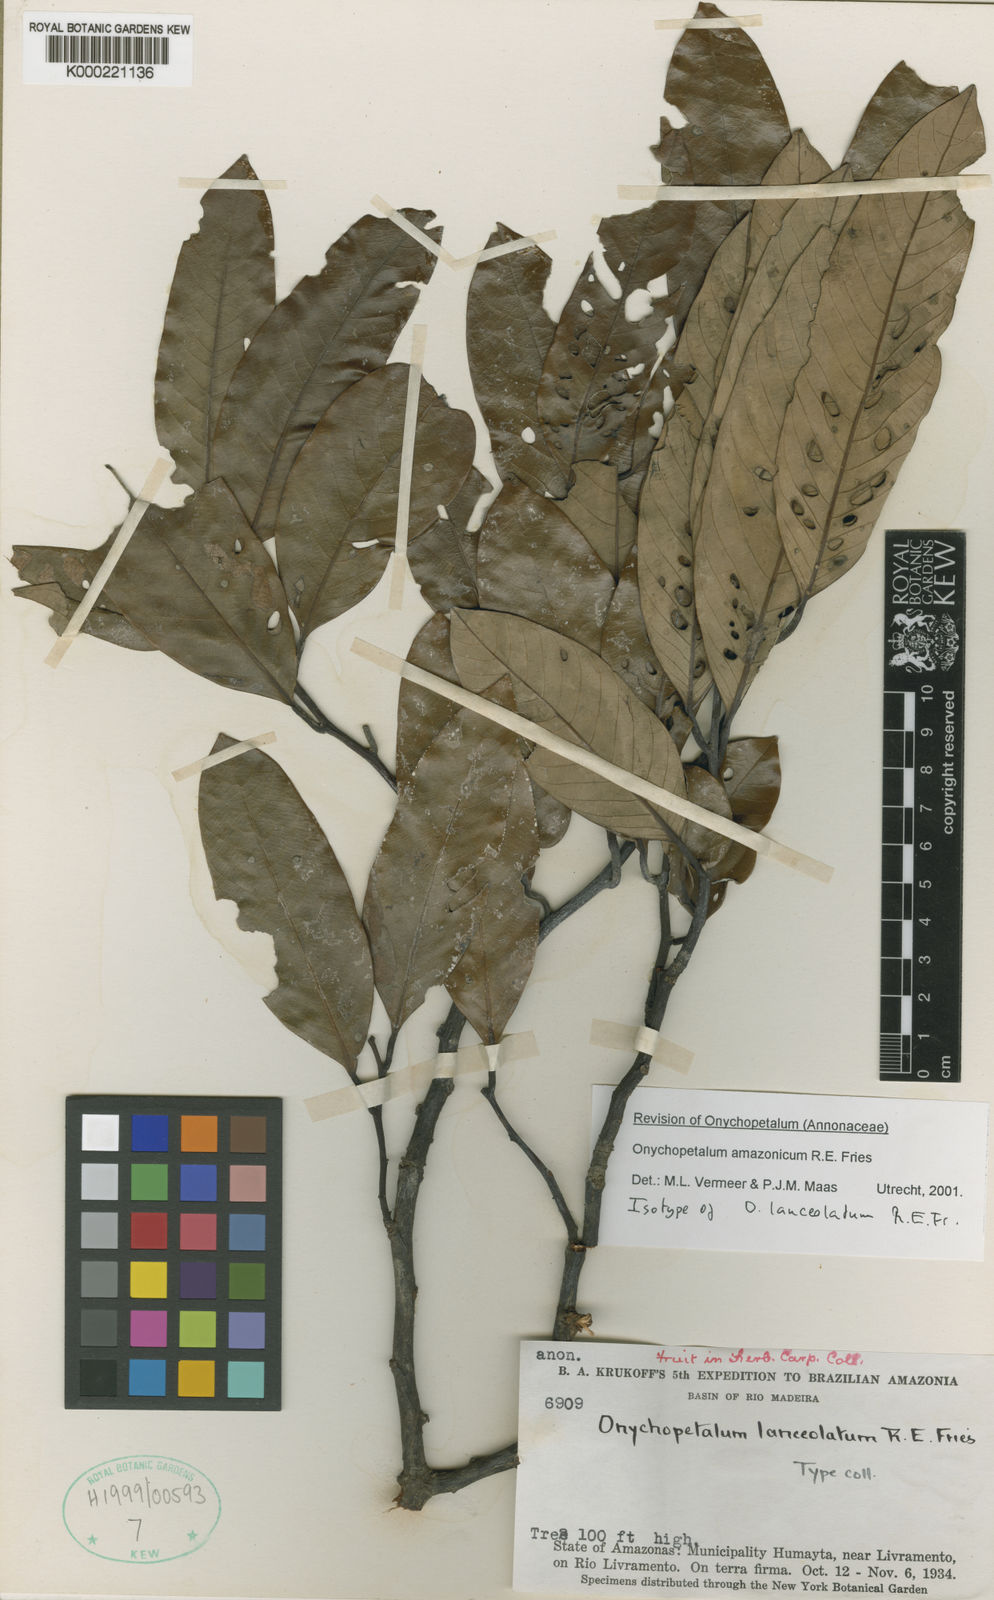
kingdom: Plantae
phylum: Tracheophyta
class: Magnoliopsida
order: Magnoliales
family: Annonaceae
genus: Onychopetalum
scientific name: Onychopetalum amazonicum
